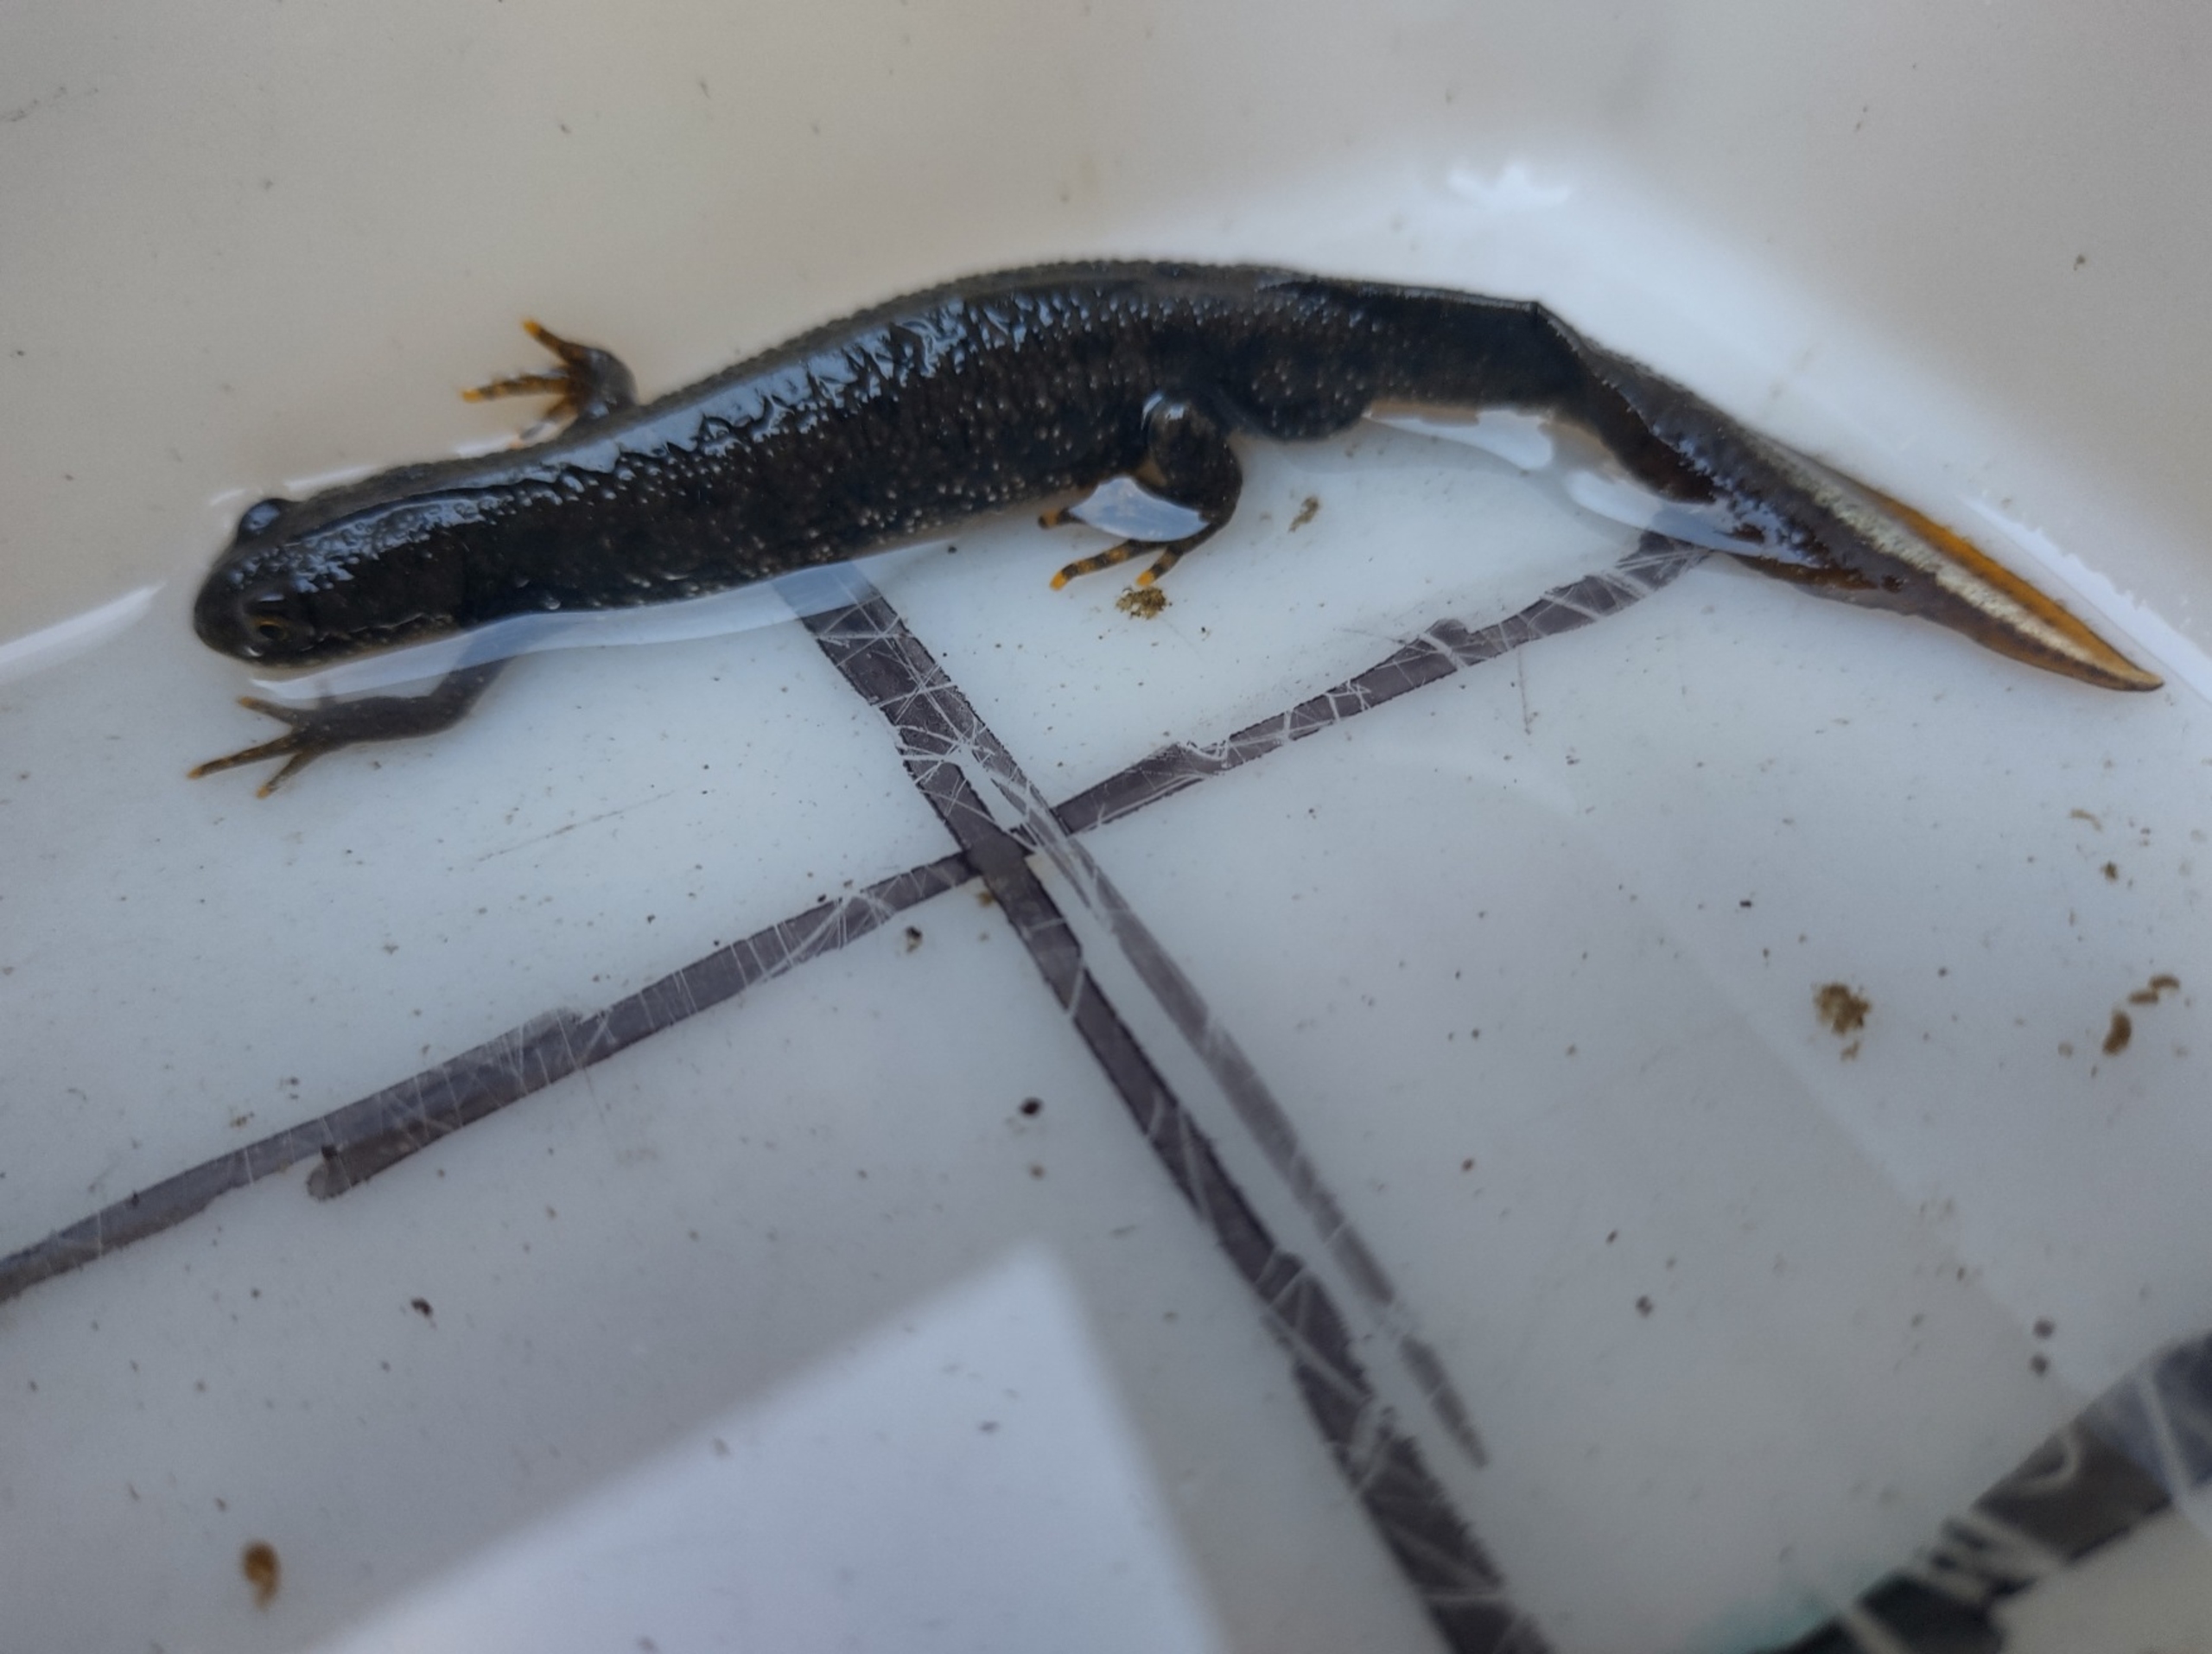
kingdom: Animalia
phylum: Chordata
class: Amphibia
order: Caudata
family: Salamandridae
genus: Triturus
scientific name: Triturus cristatus
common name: Stor vandsalamander
